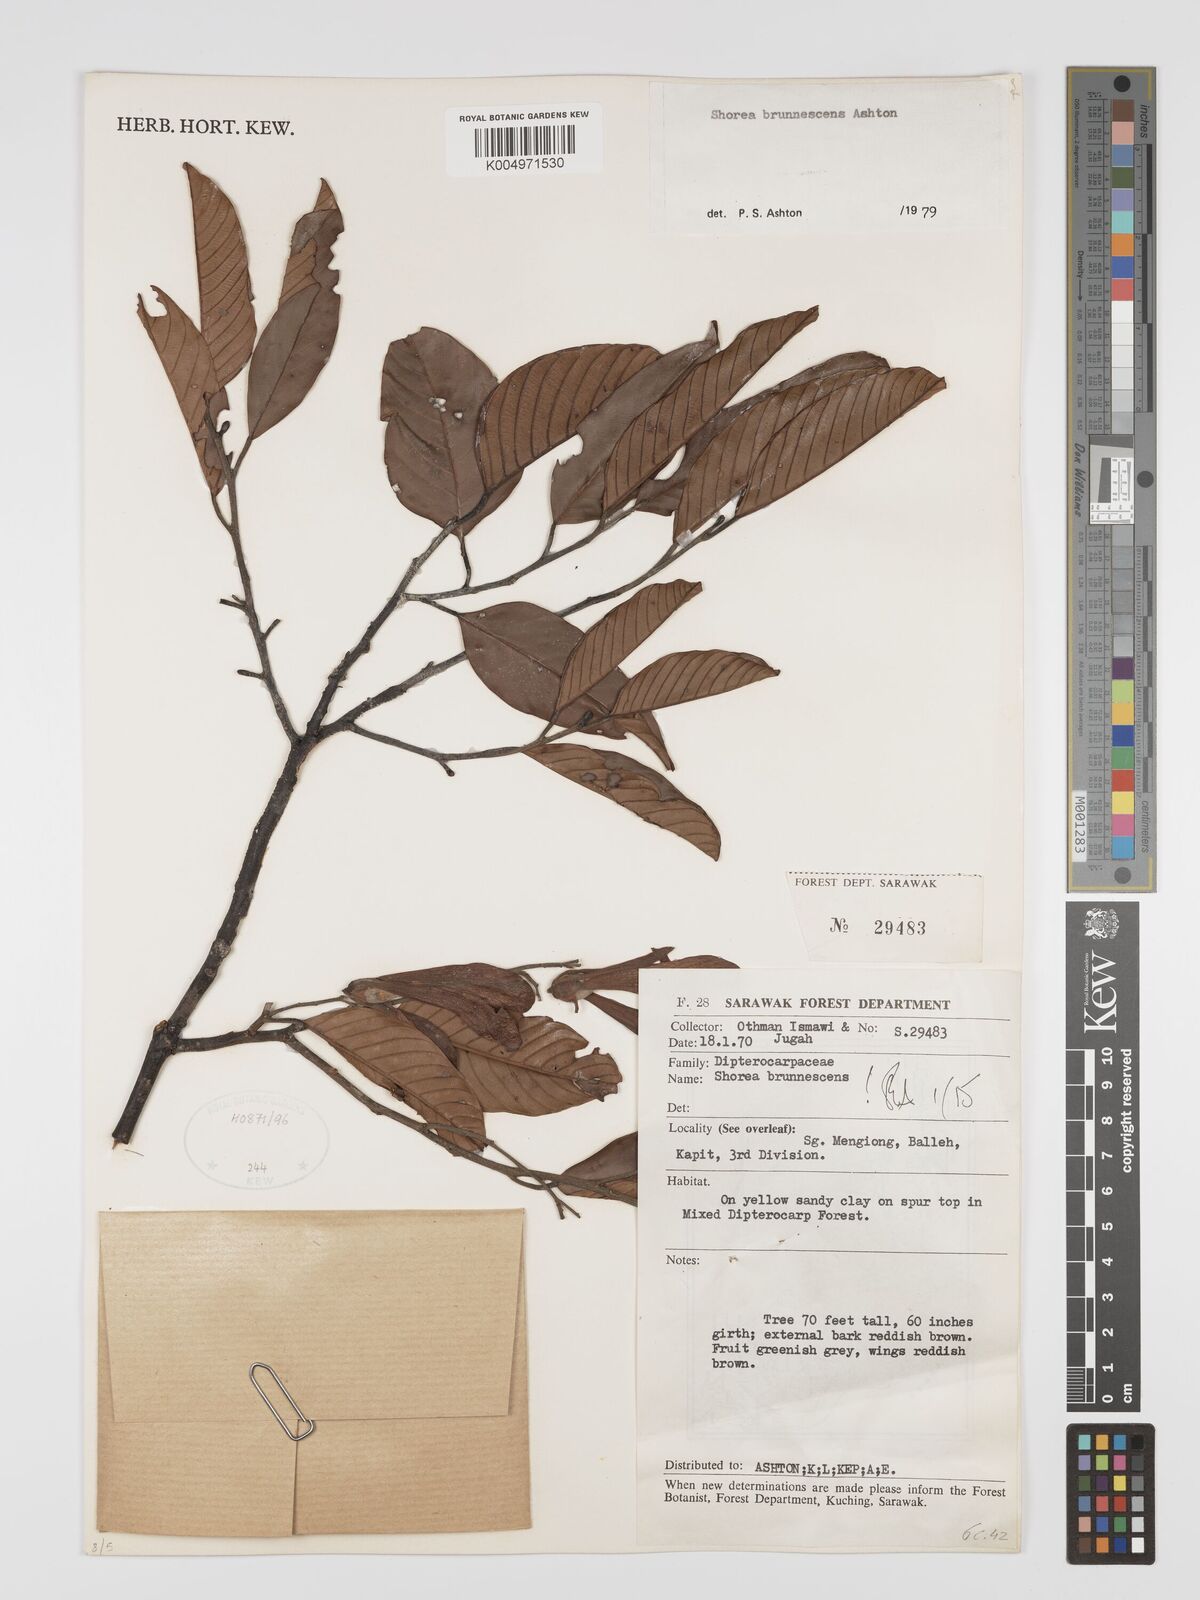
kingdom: Plantae
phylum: Tracheophyta
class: Magnoliopsida
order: Malvales
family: Dipterocarpaceae
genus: Shorea
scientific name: Shorea brunnescens
